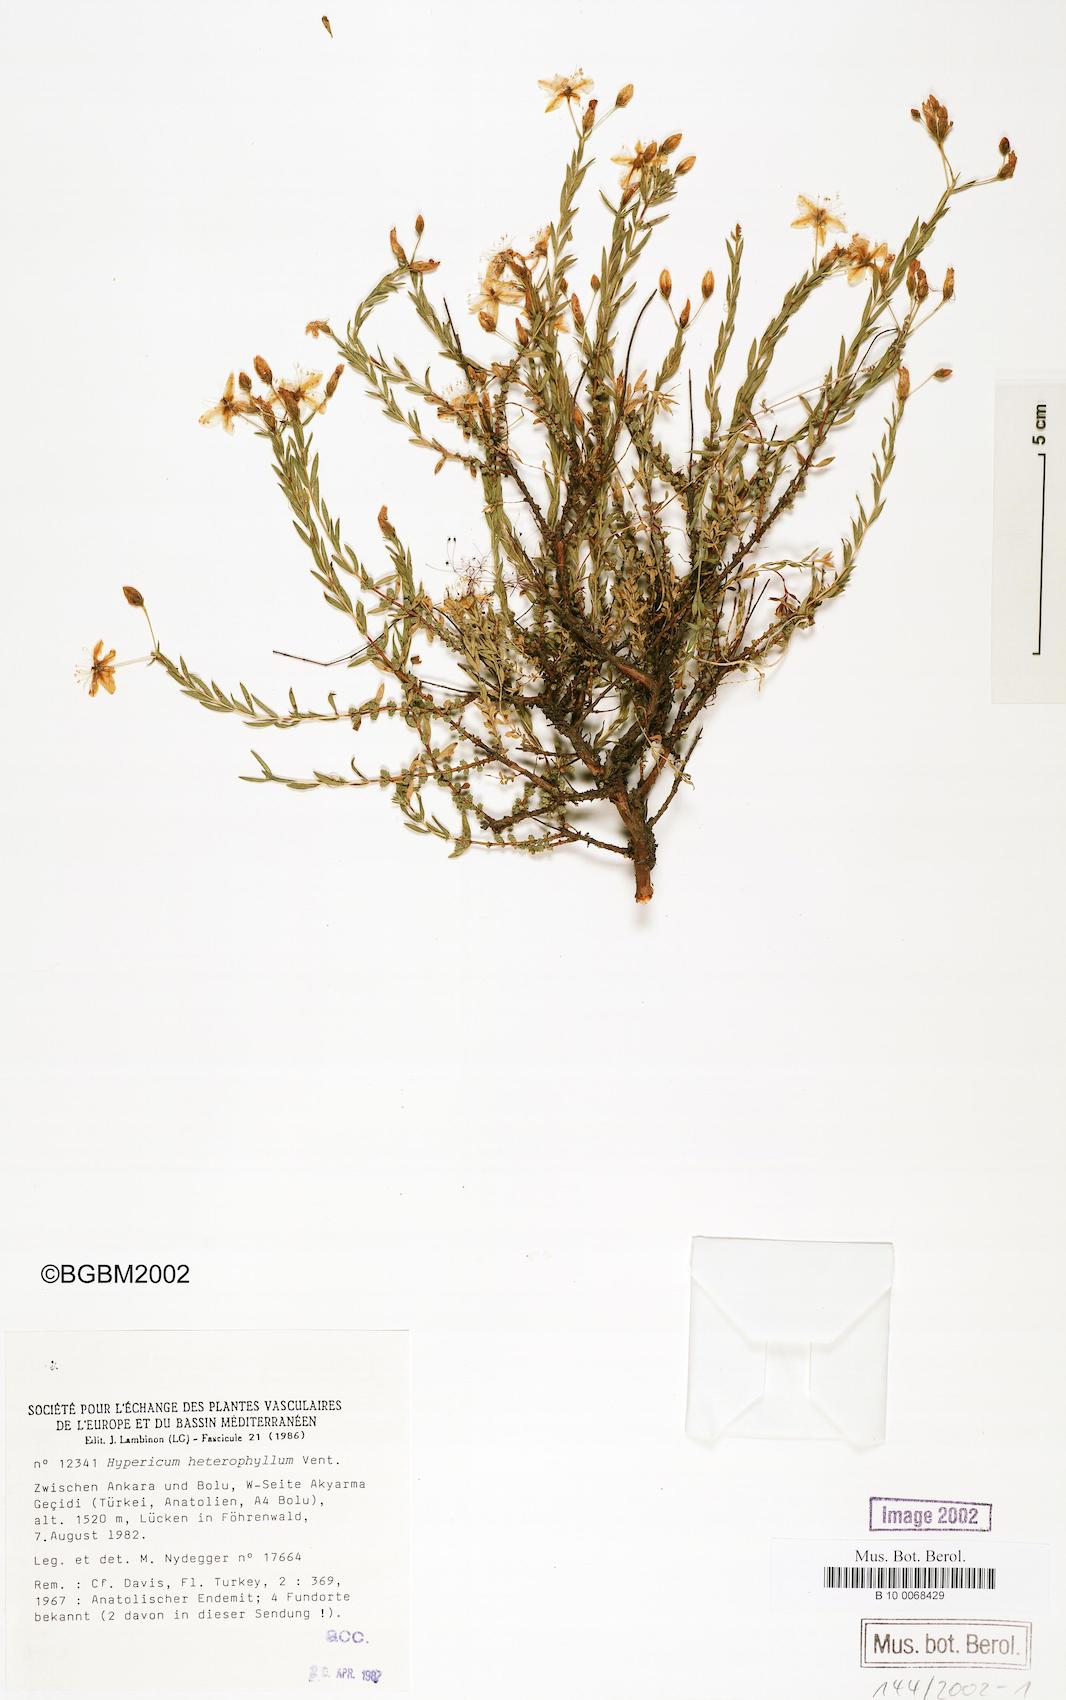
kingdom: Plantae
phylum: Tracheophyta
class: Magnoliopsida
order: Malpighiales
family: Hypericaceae
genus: Hypericum
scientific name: Hypericum heterophyllum
